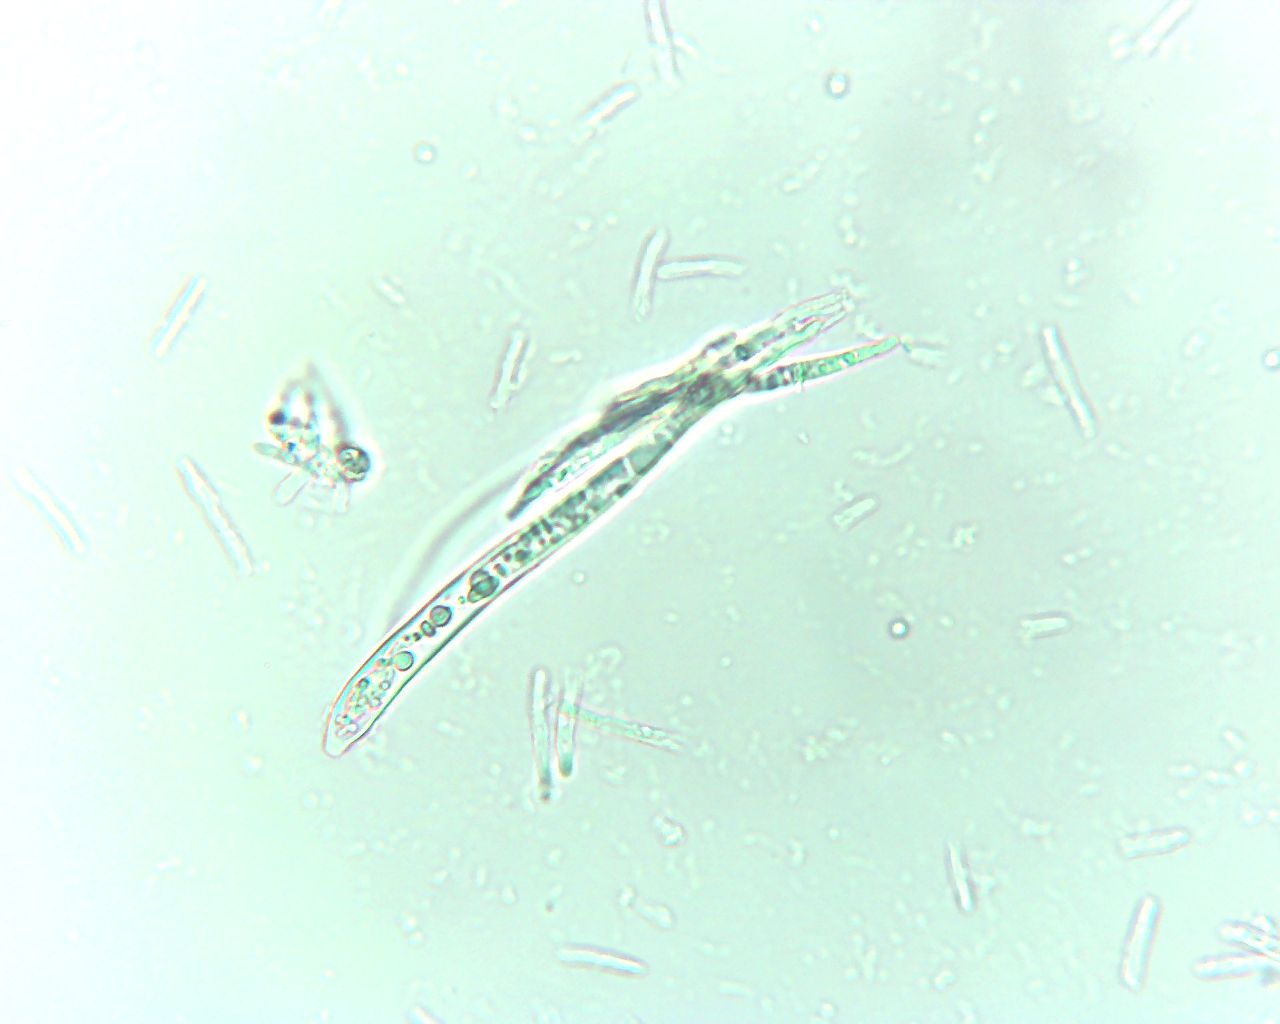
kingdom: Fungi
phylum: Ascomycota
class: Leotiomycetes
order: Helotiales
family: Helotiaceae
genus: Hymenoscyphus
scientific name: Hymenoscyphus
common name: stilkskive
